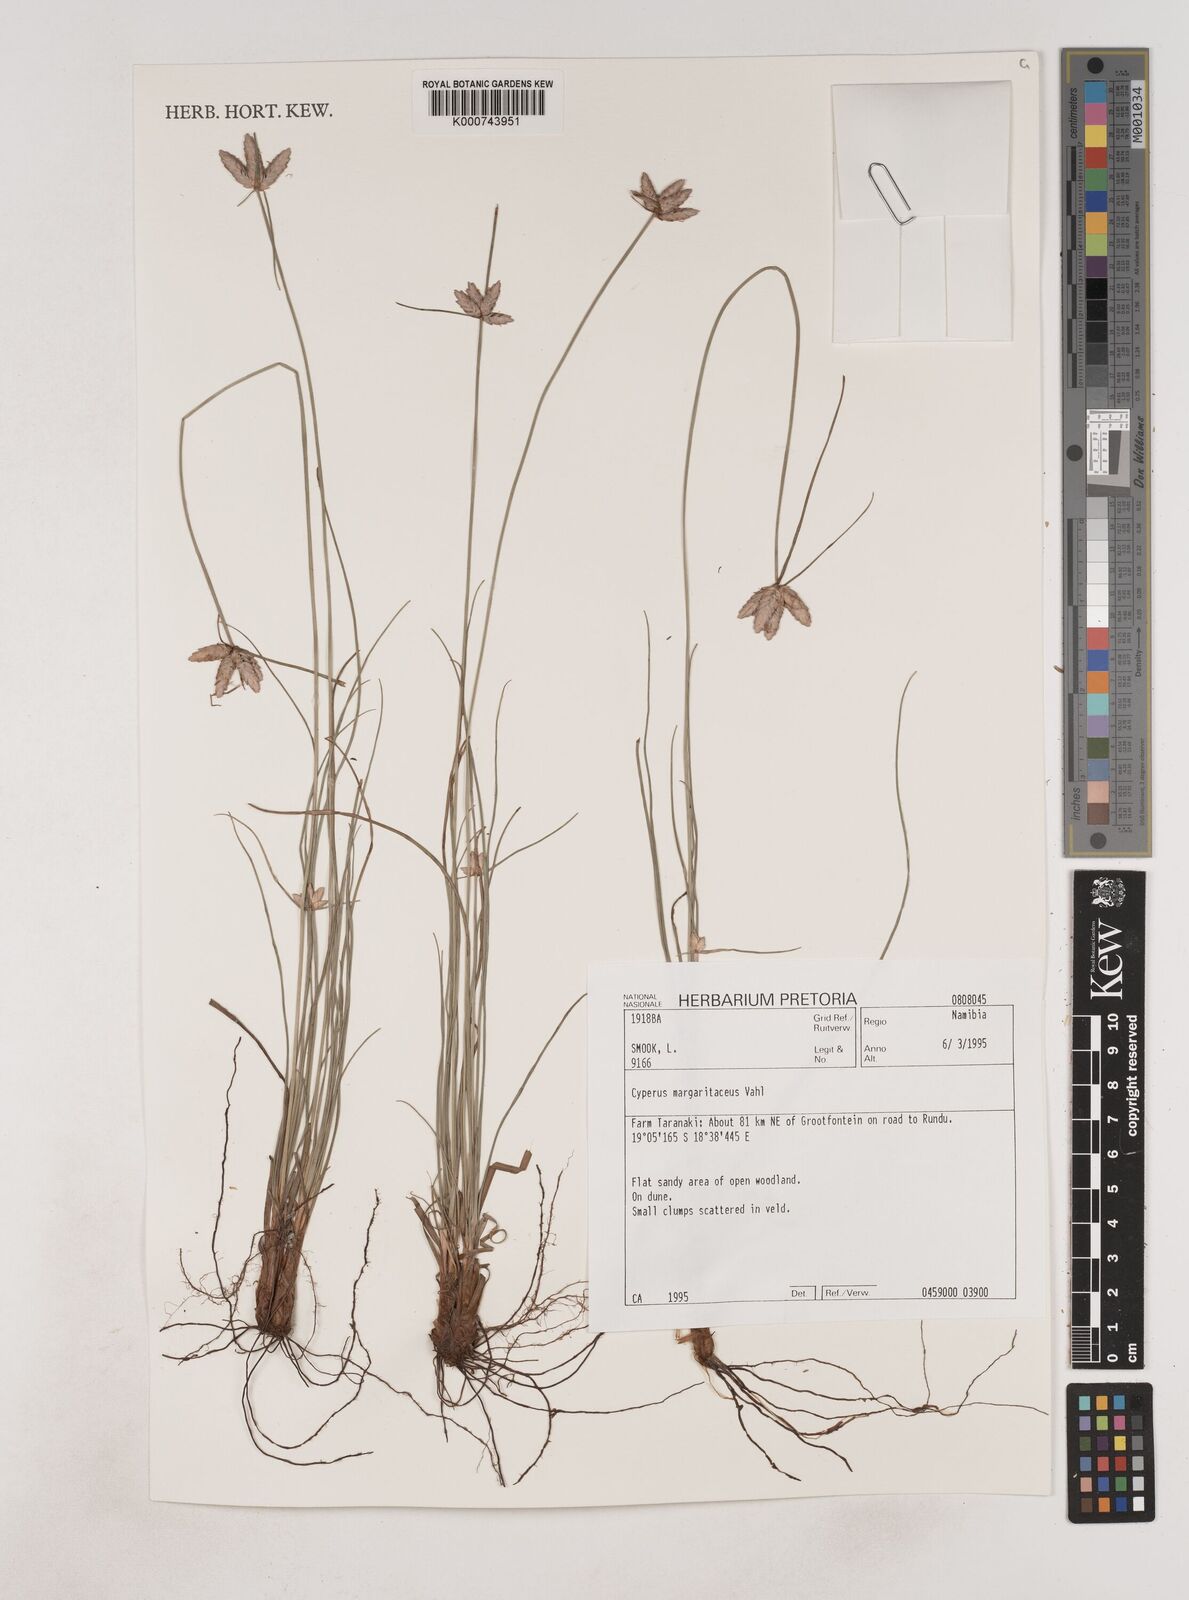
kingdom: Plantae
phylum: Tracheophyta
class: Liliopsida
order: Poales
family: Cyperaceae
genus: Cyperus
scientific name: Cyperus margaritaceus
